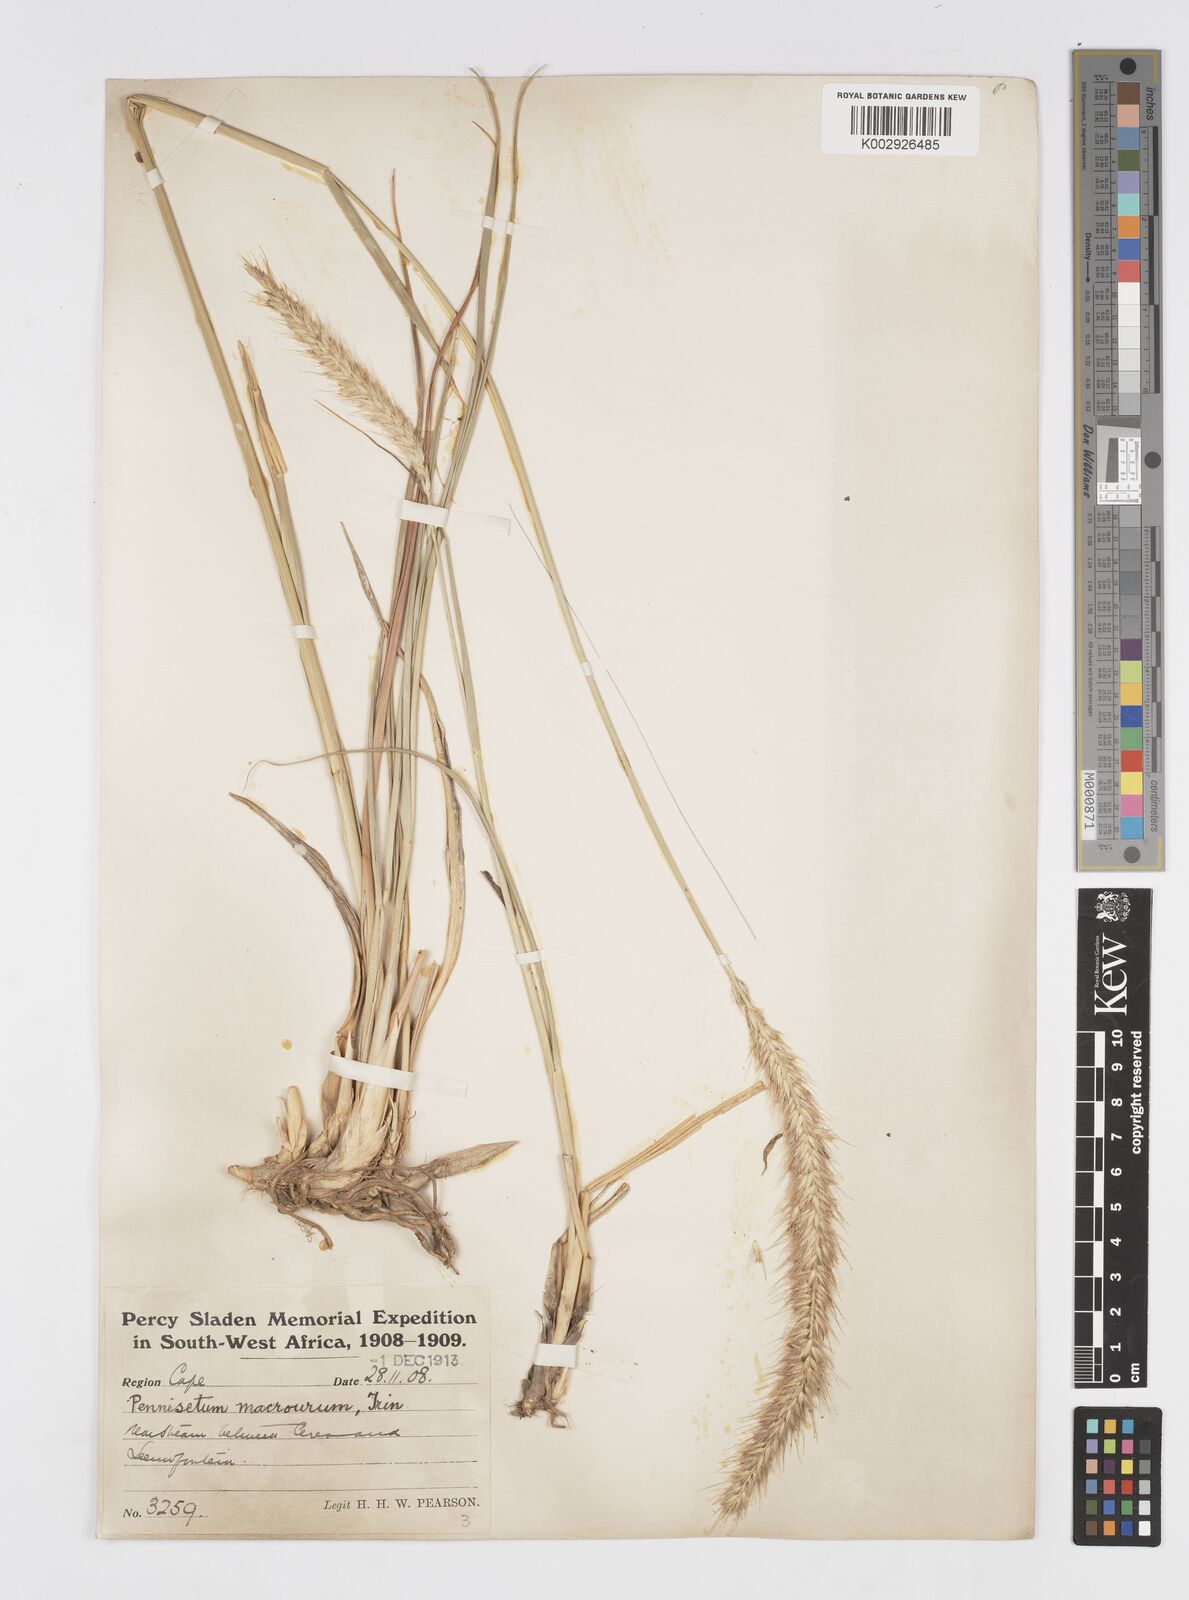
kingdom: Plantae
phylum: Tracheophyta
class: Liliopsida
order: Poales
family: Poaceae
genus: Cenchrus
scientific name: Cenchrus caudatus
